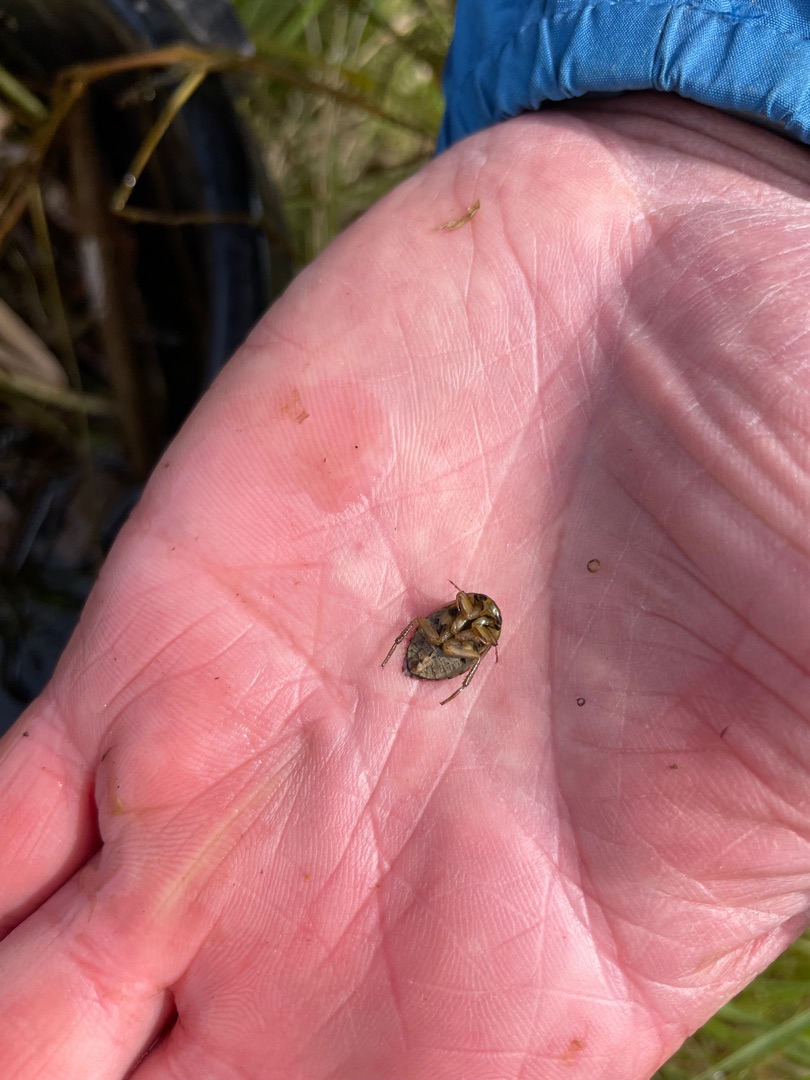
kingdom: Animalia
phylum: Arthropoda
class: Insecta
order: Hemiptera
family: Naucoridae
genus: Ilyocoris
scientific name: Ilyocoris cimicoides
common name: Vandrøver
